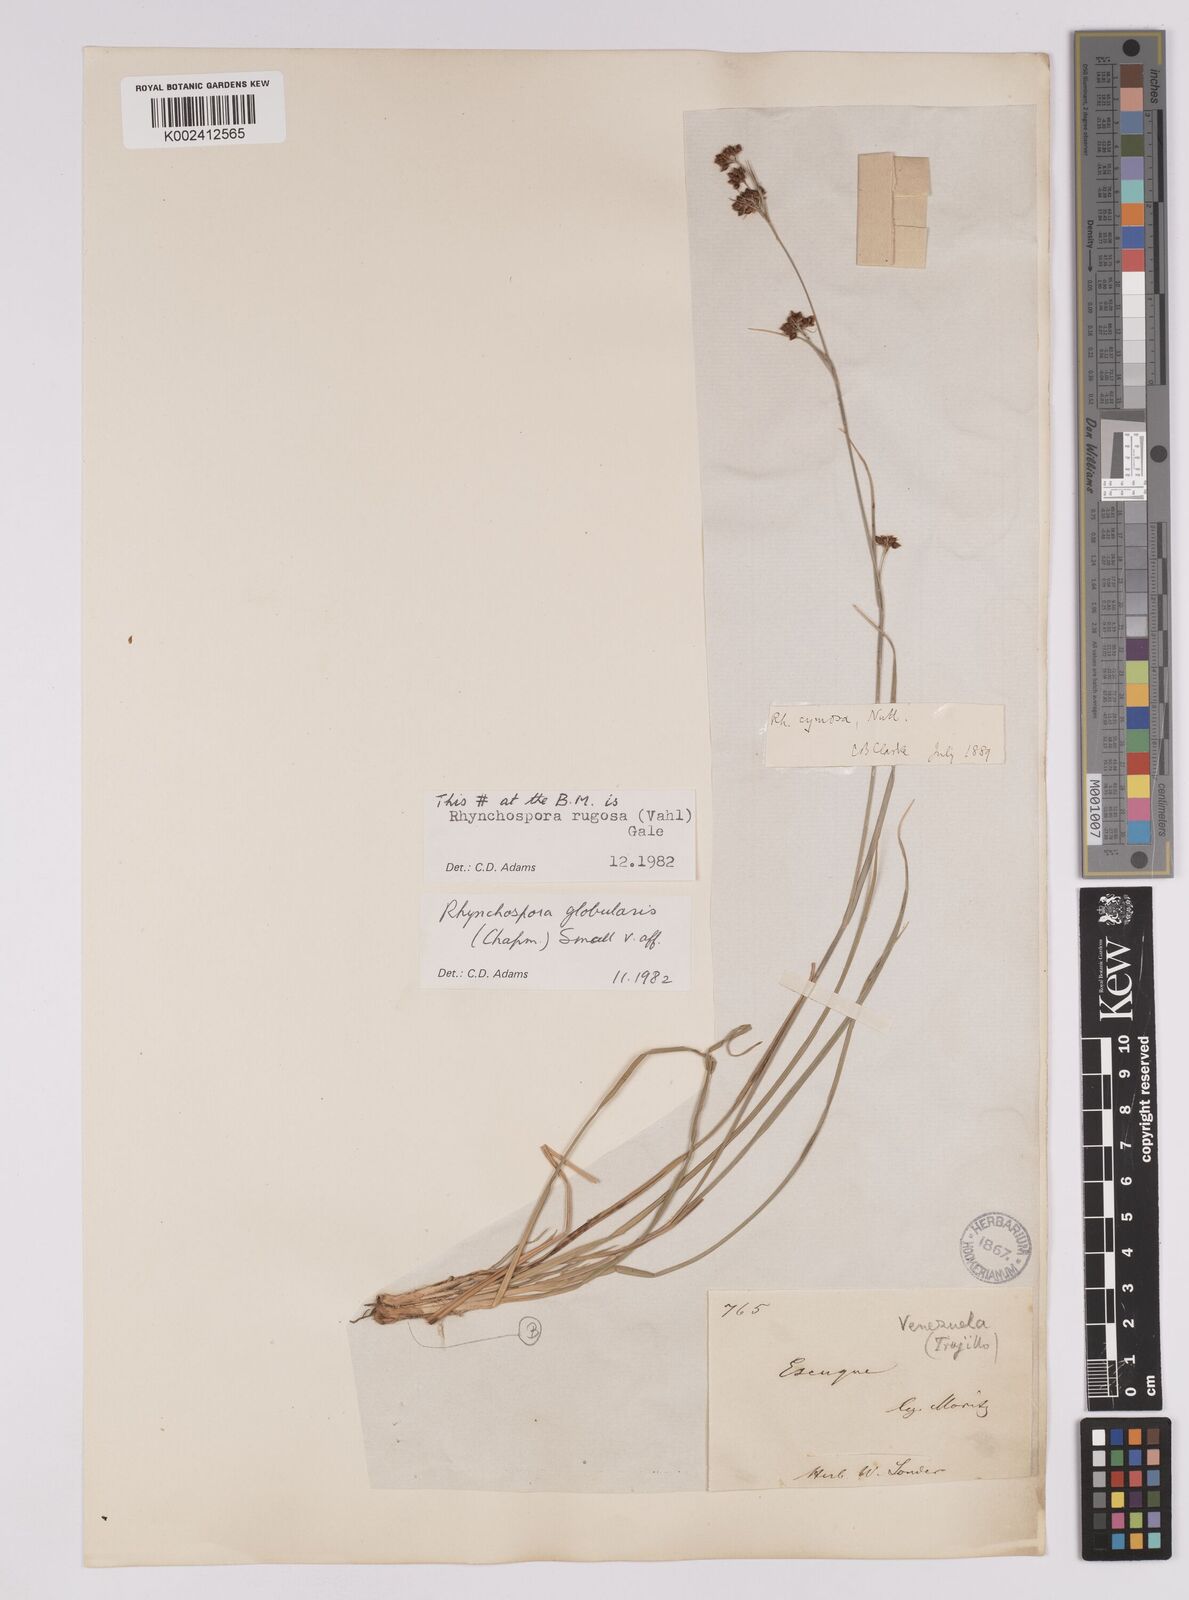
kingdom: Plantae
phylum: Tracheophyta
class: Liliopsida
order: Poales
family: Cyperaceae
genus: Rhynchospora
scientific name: Rhynchospora globularis
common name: Globe beaksedge
